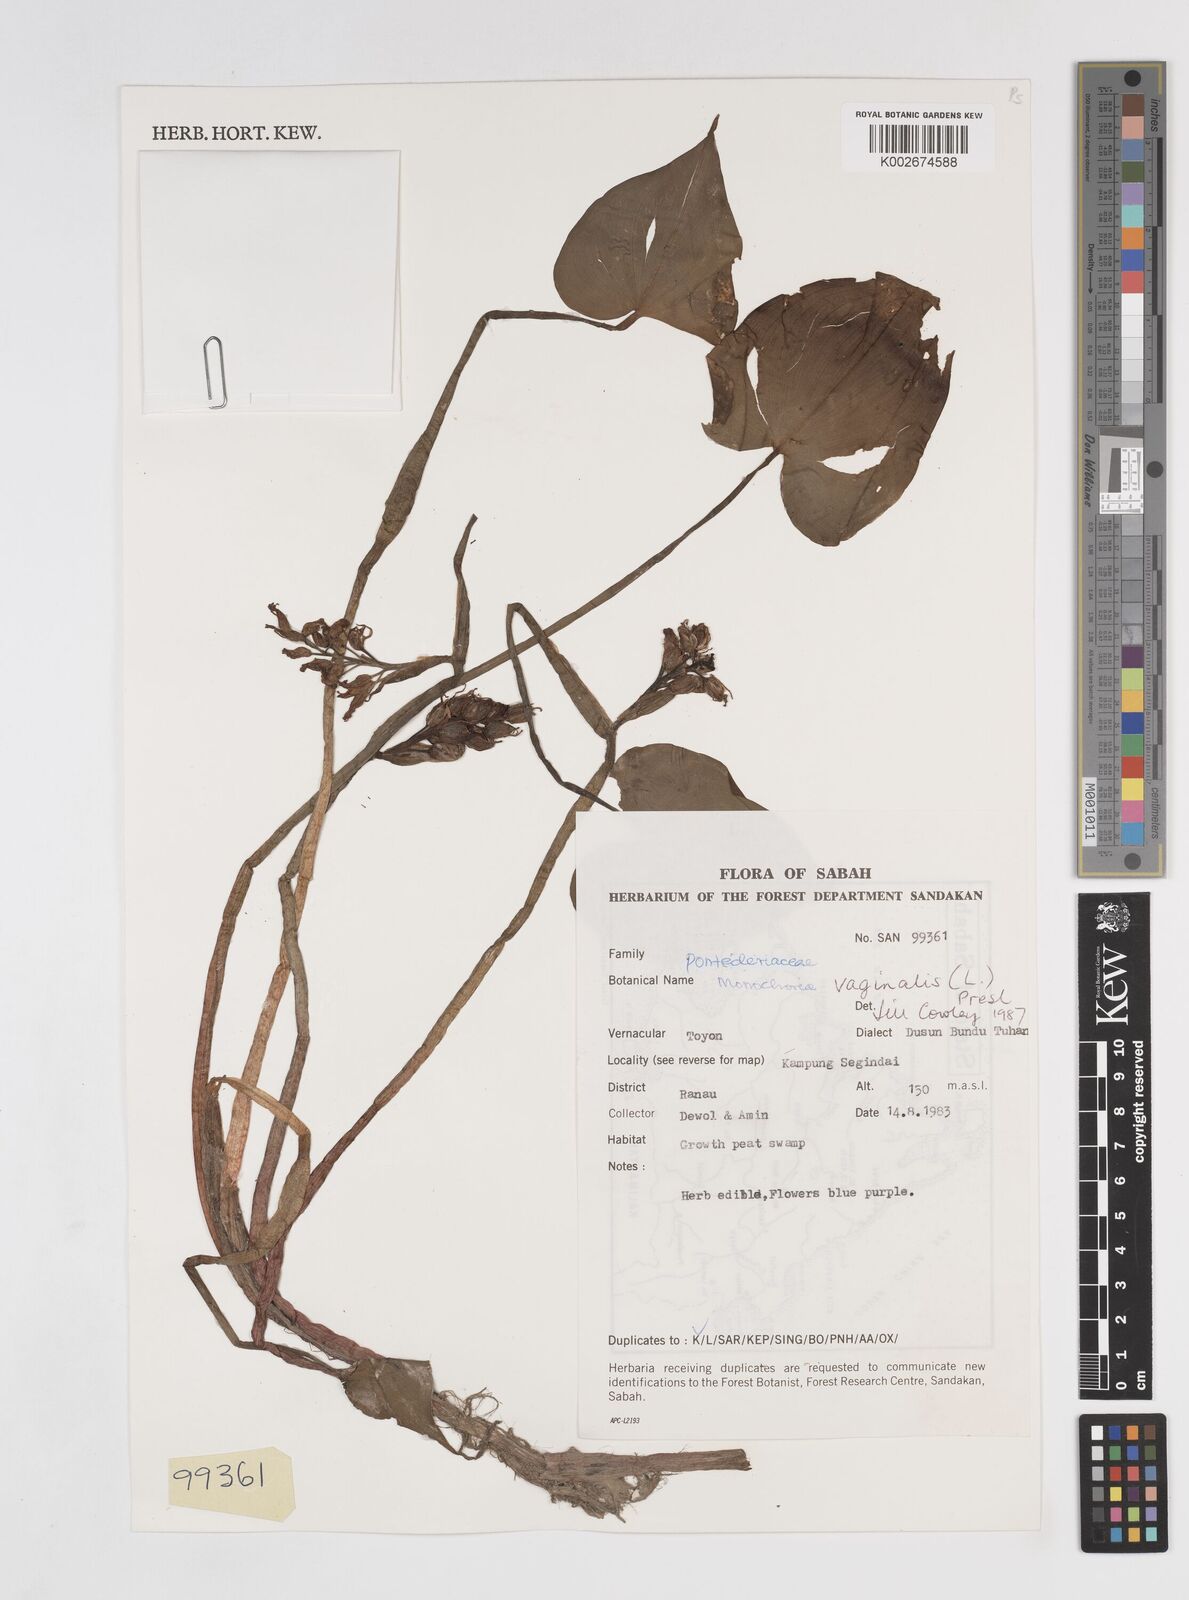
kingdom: Plantae
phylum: Tracheophyta
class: Liliopsida
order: Commelinales
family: Pontederiaceae
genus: Pontederia
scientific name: Pontederia vaginalis
